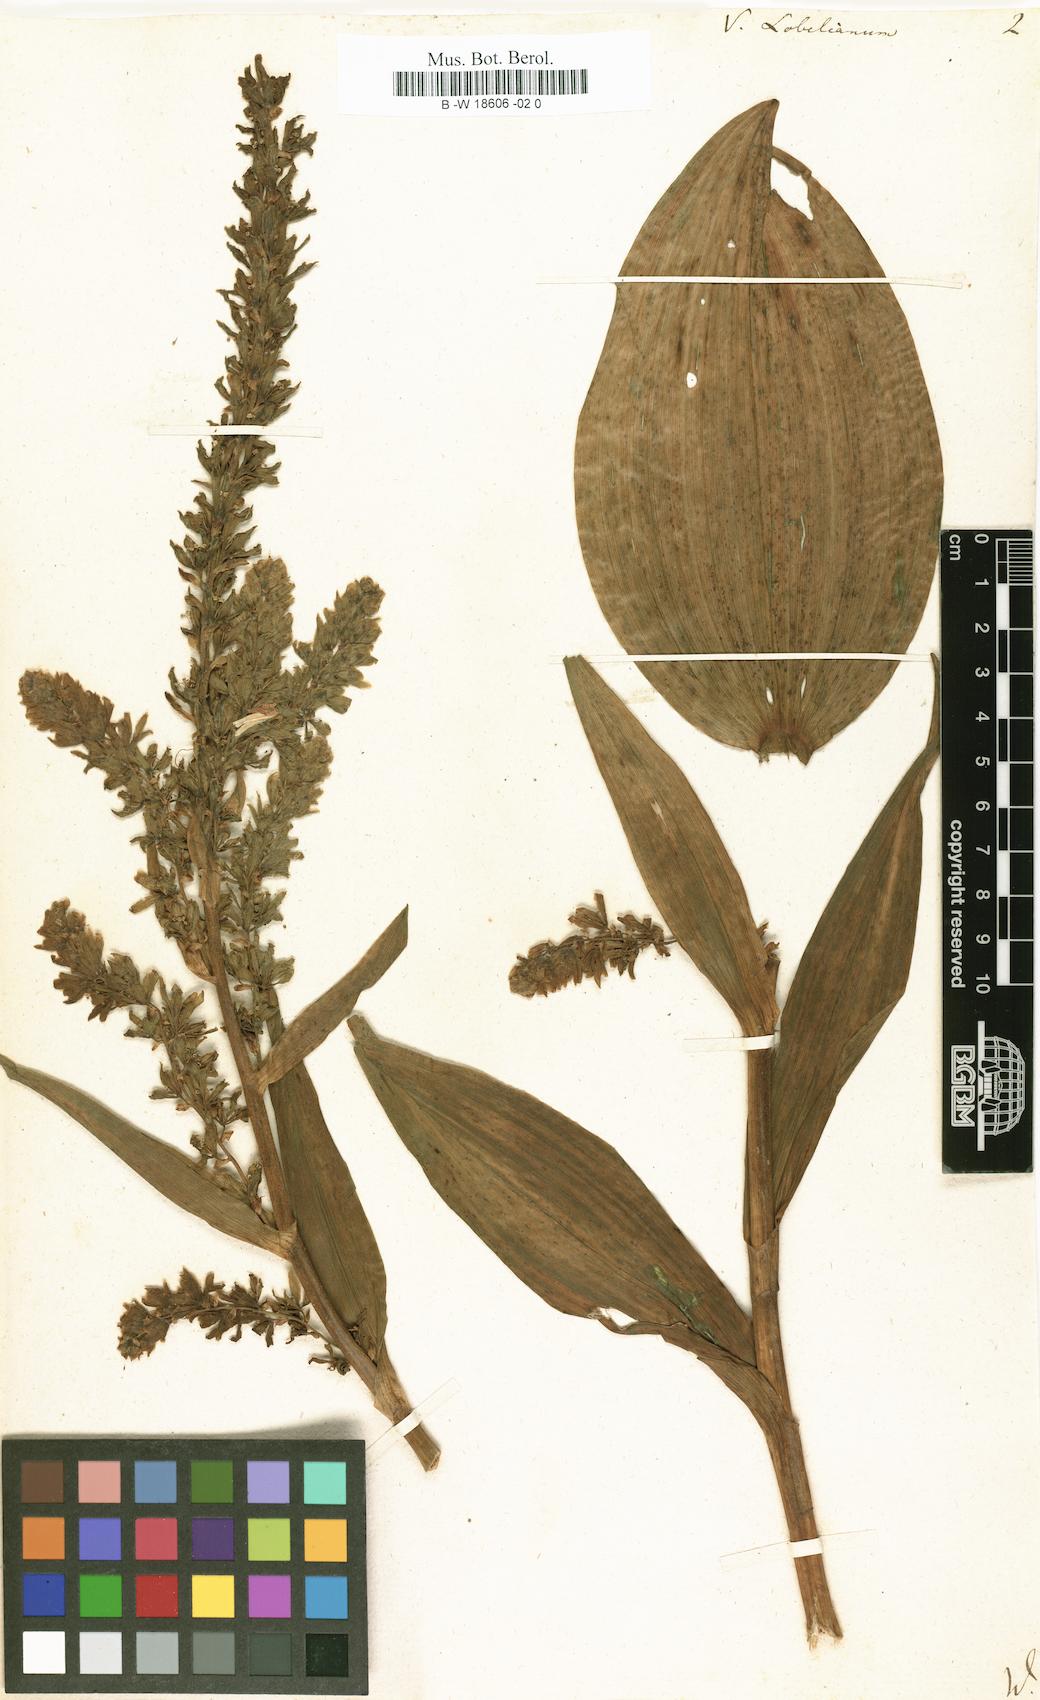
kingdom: Plantae
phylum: Tracheophyta
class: Liliopsida
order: Liliales
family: Melanthiaceae
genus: Veratrum
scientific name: Veratrum lobelianum
